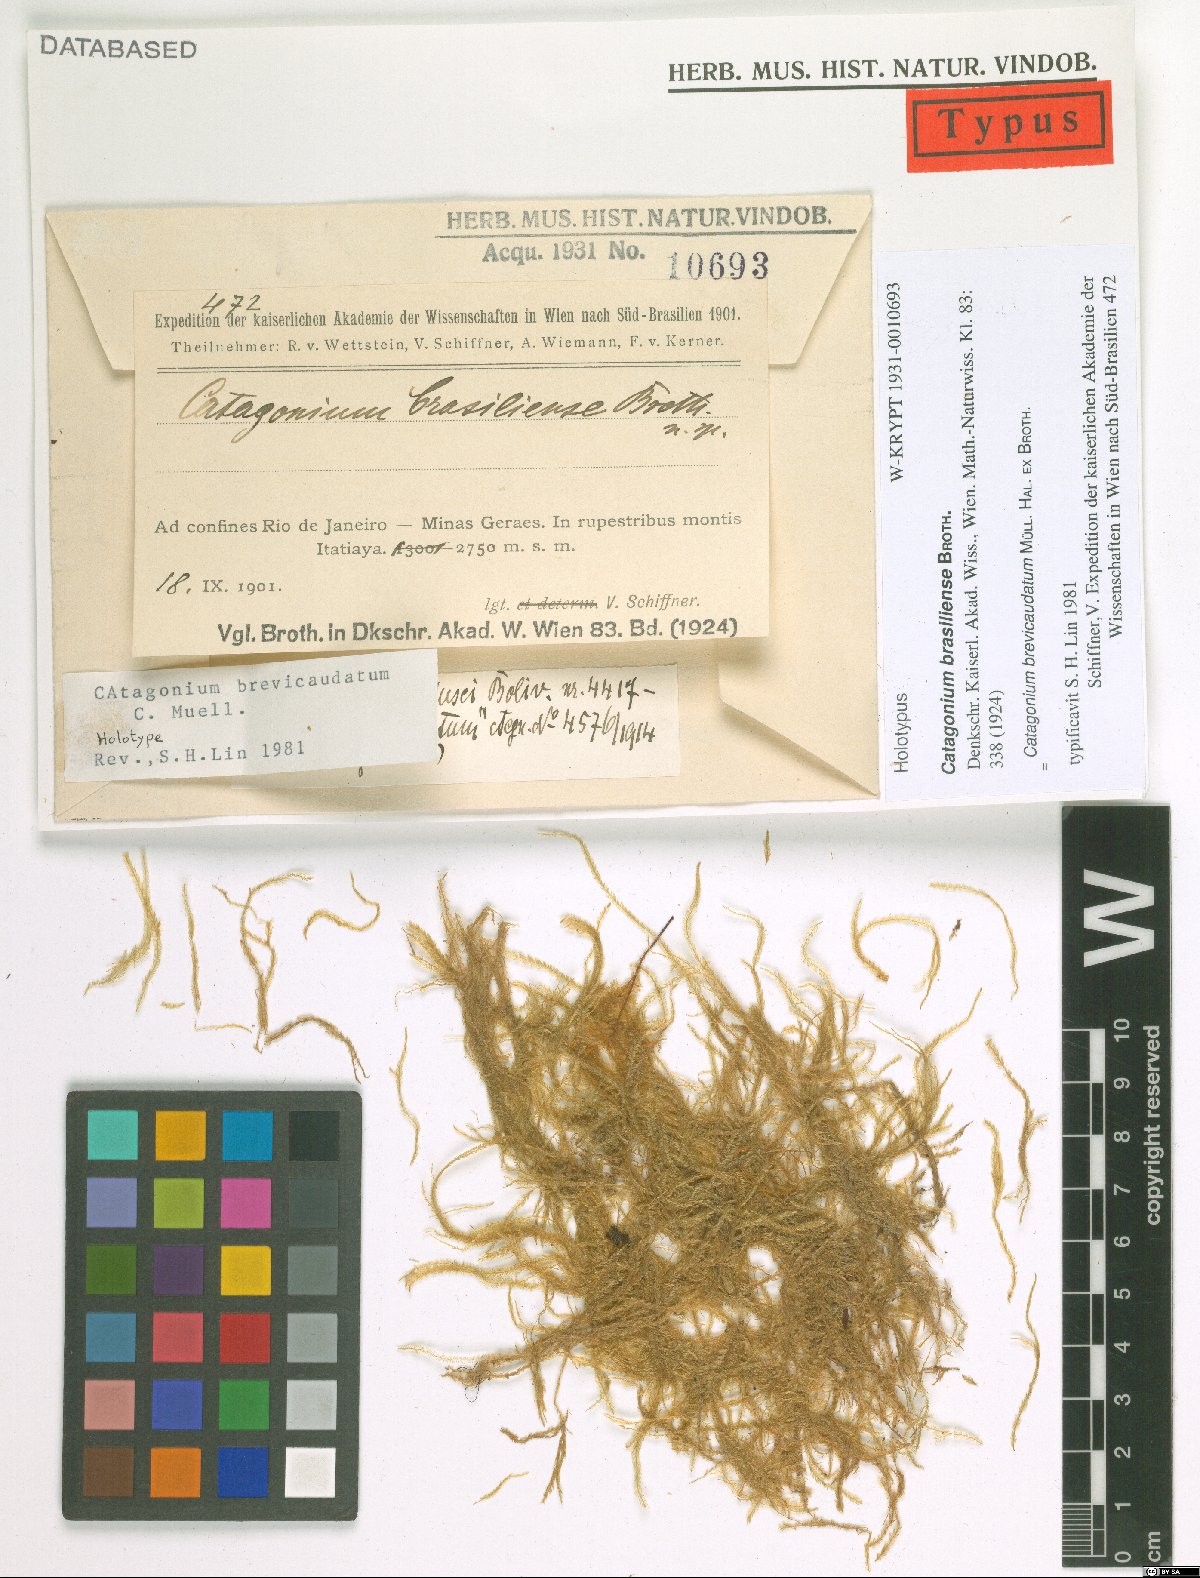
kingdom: Plantae
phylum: Bryophyta
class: Bryopsida
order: Hypnales
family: Catagoniaceae
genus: Catagonium
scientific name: Catagonium brevicaudatum
